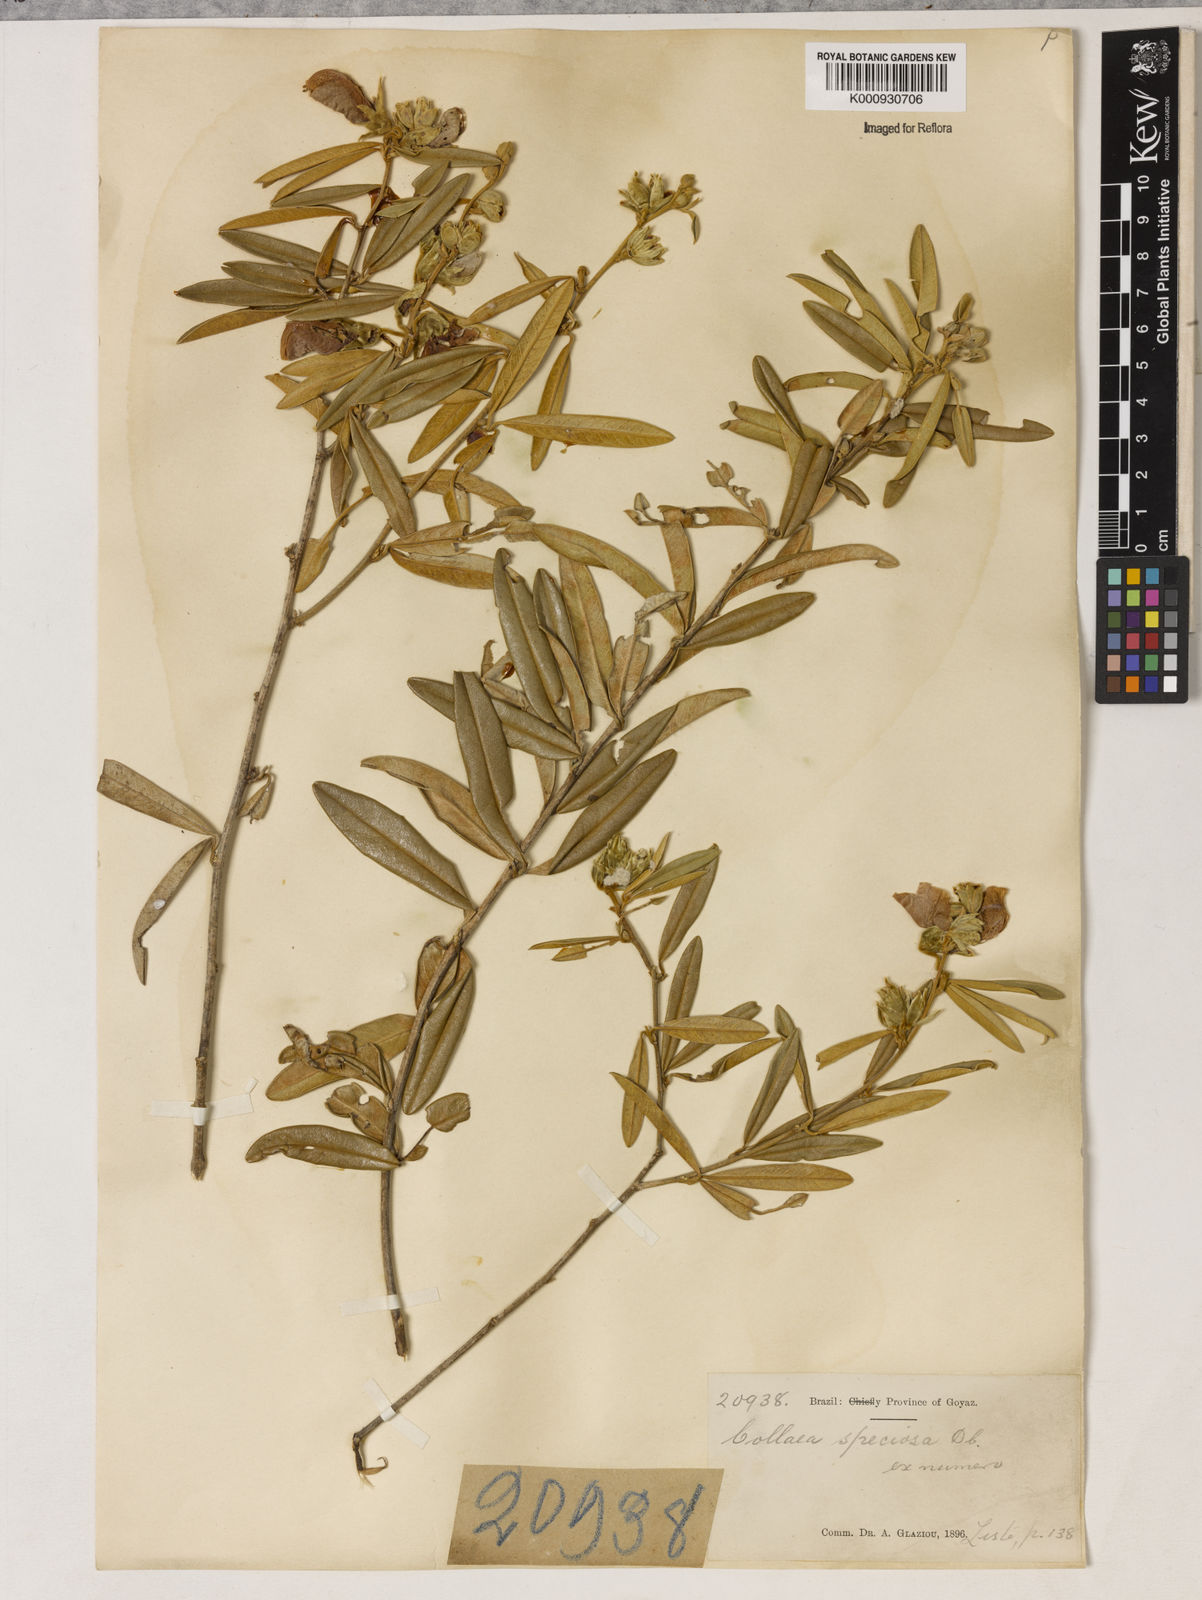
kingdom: Plantae
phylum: Tracheophyta
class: Magnoliopsida
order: Lamiales
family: Lamiaceae
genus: Coleus
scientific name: Coleus barbatus
